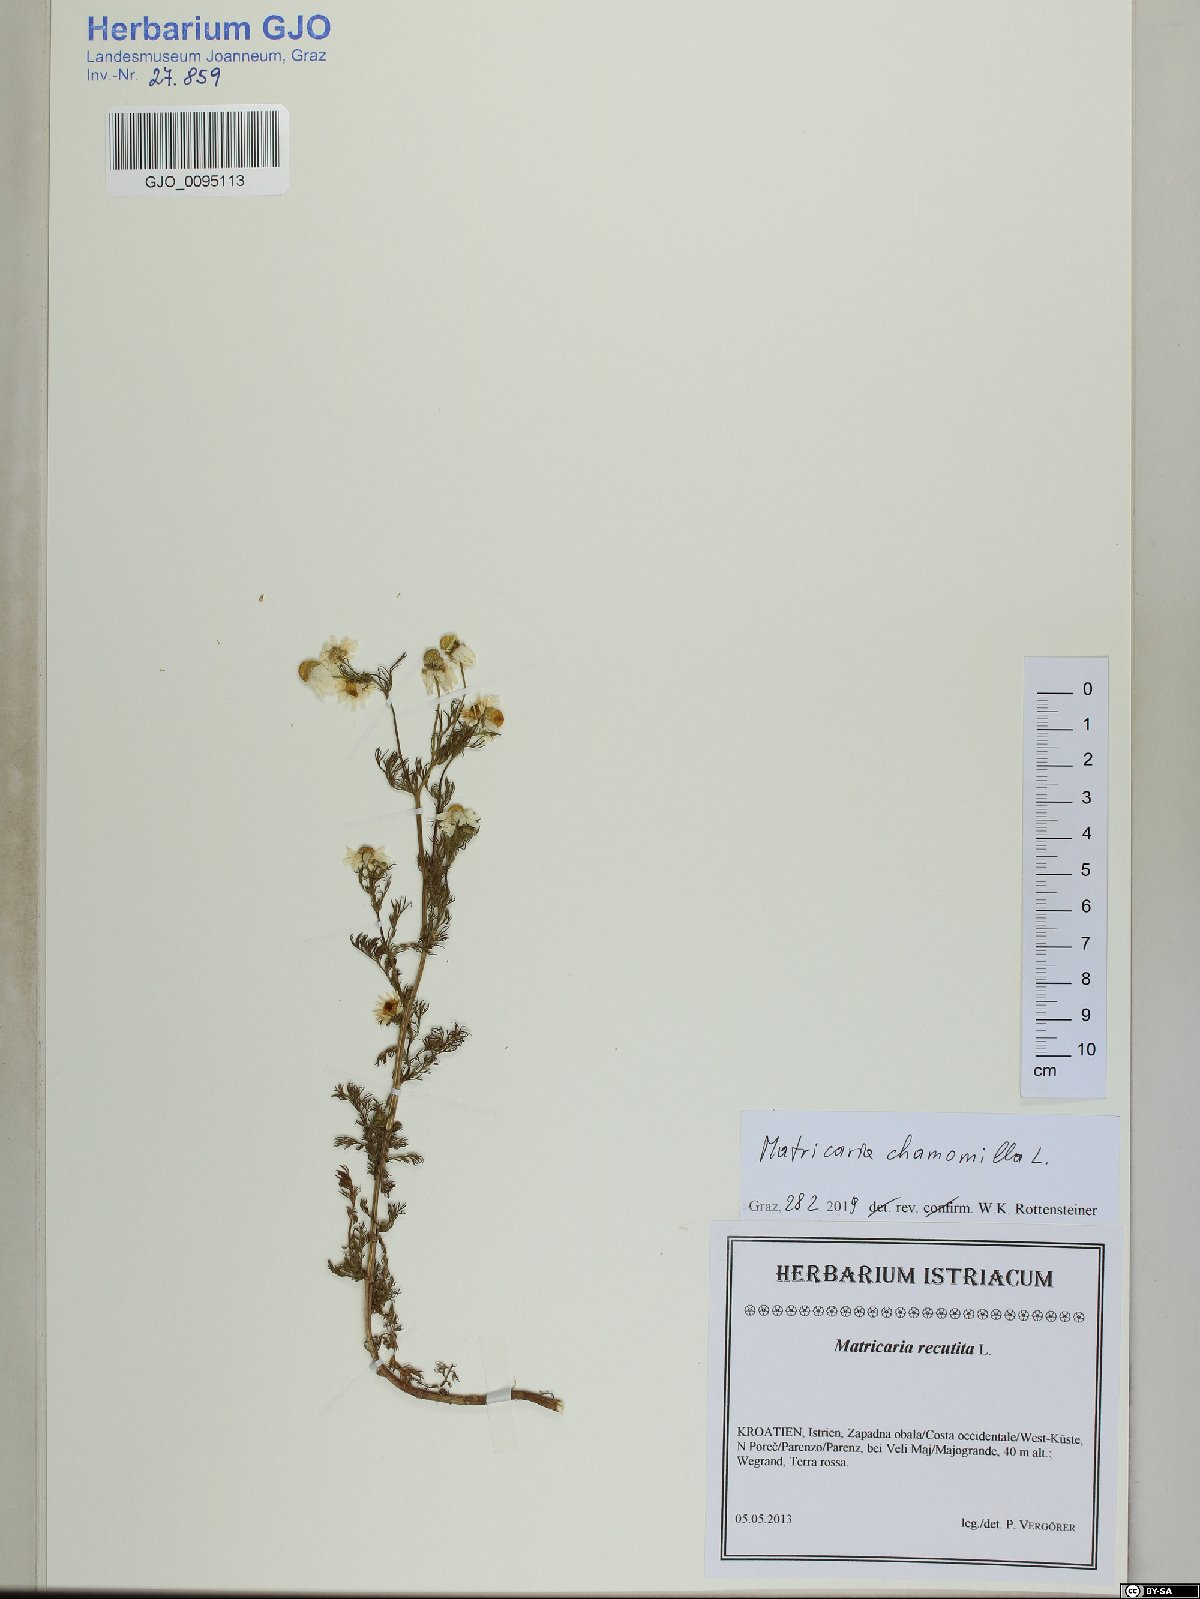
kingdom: Plantae
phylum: Tracheophyta
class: Magnoliopsida
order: Asterales
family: Asteraceae
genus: Matricaria
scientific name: Matricaria chamomilla
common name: Scented mayweed
